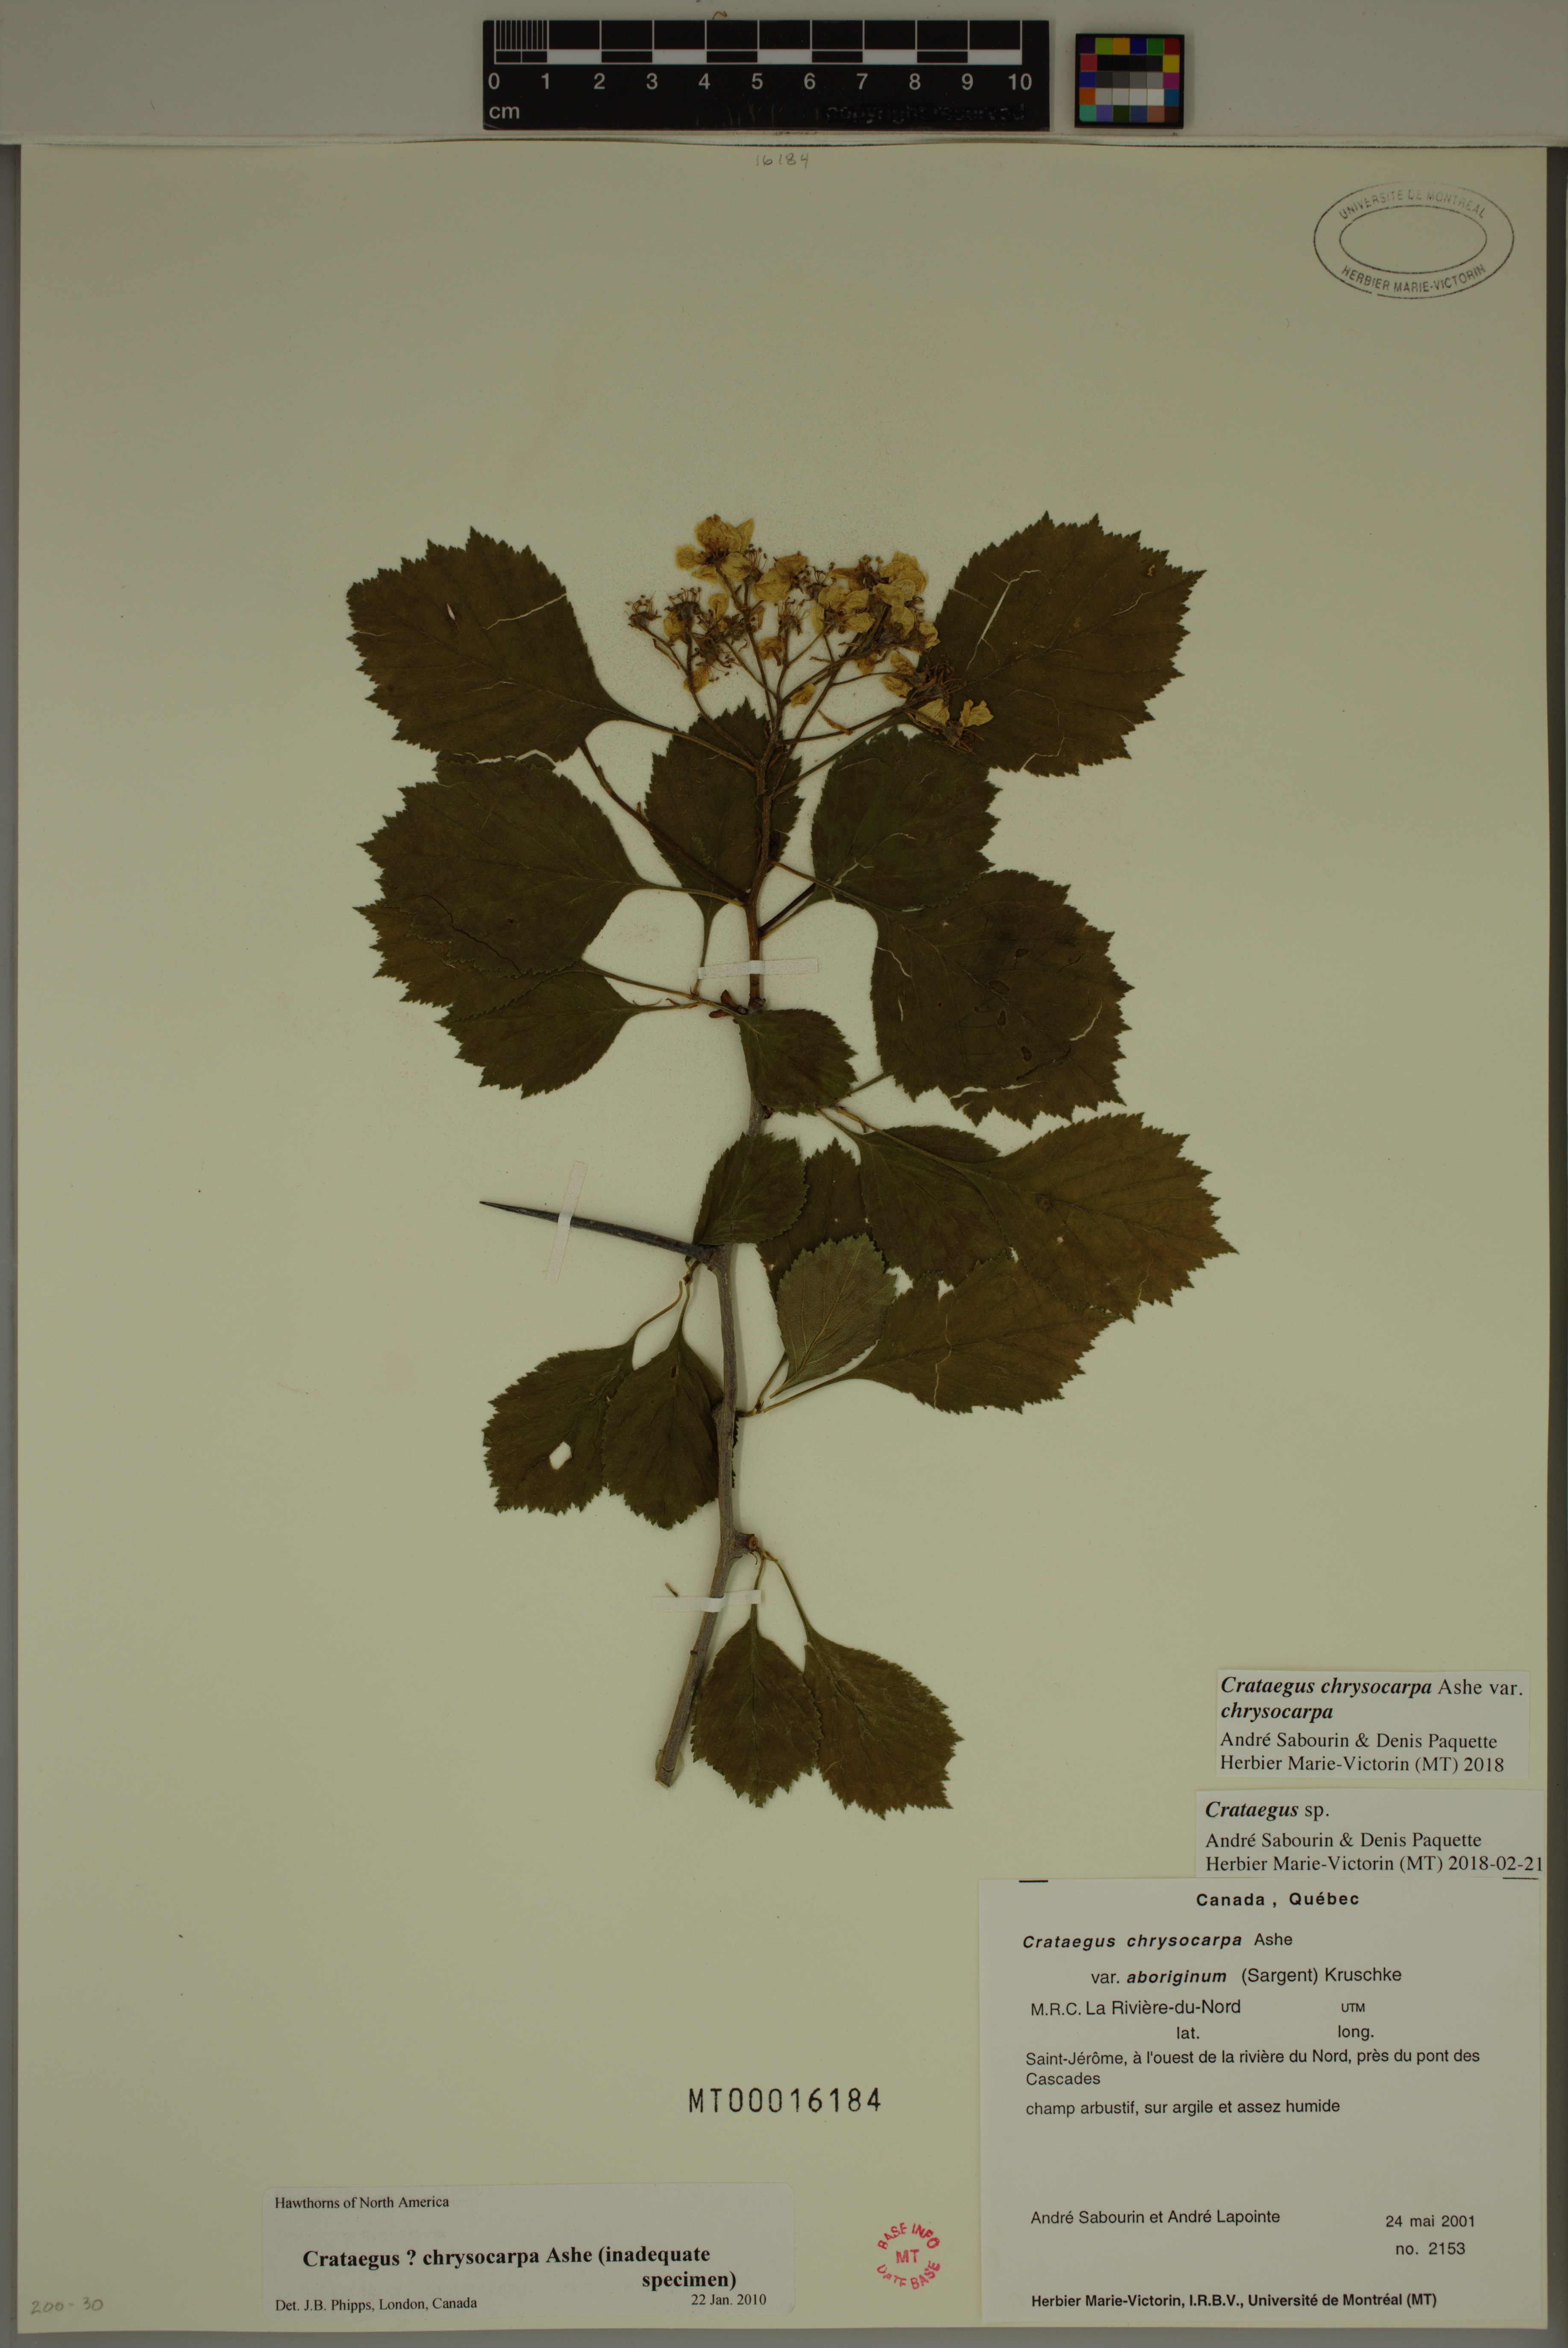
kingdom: Plantae
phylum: Tracheophyta
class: Magnoliopsida
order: Rosales
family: Rosaceae
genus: Crataegus
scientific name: Crataegus chrysocarpa
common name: Fire-berry hawthorn
